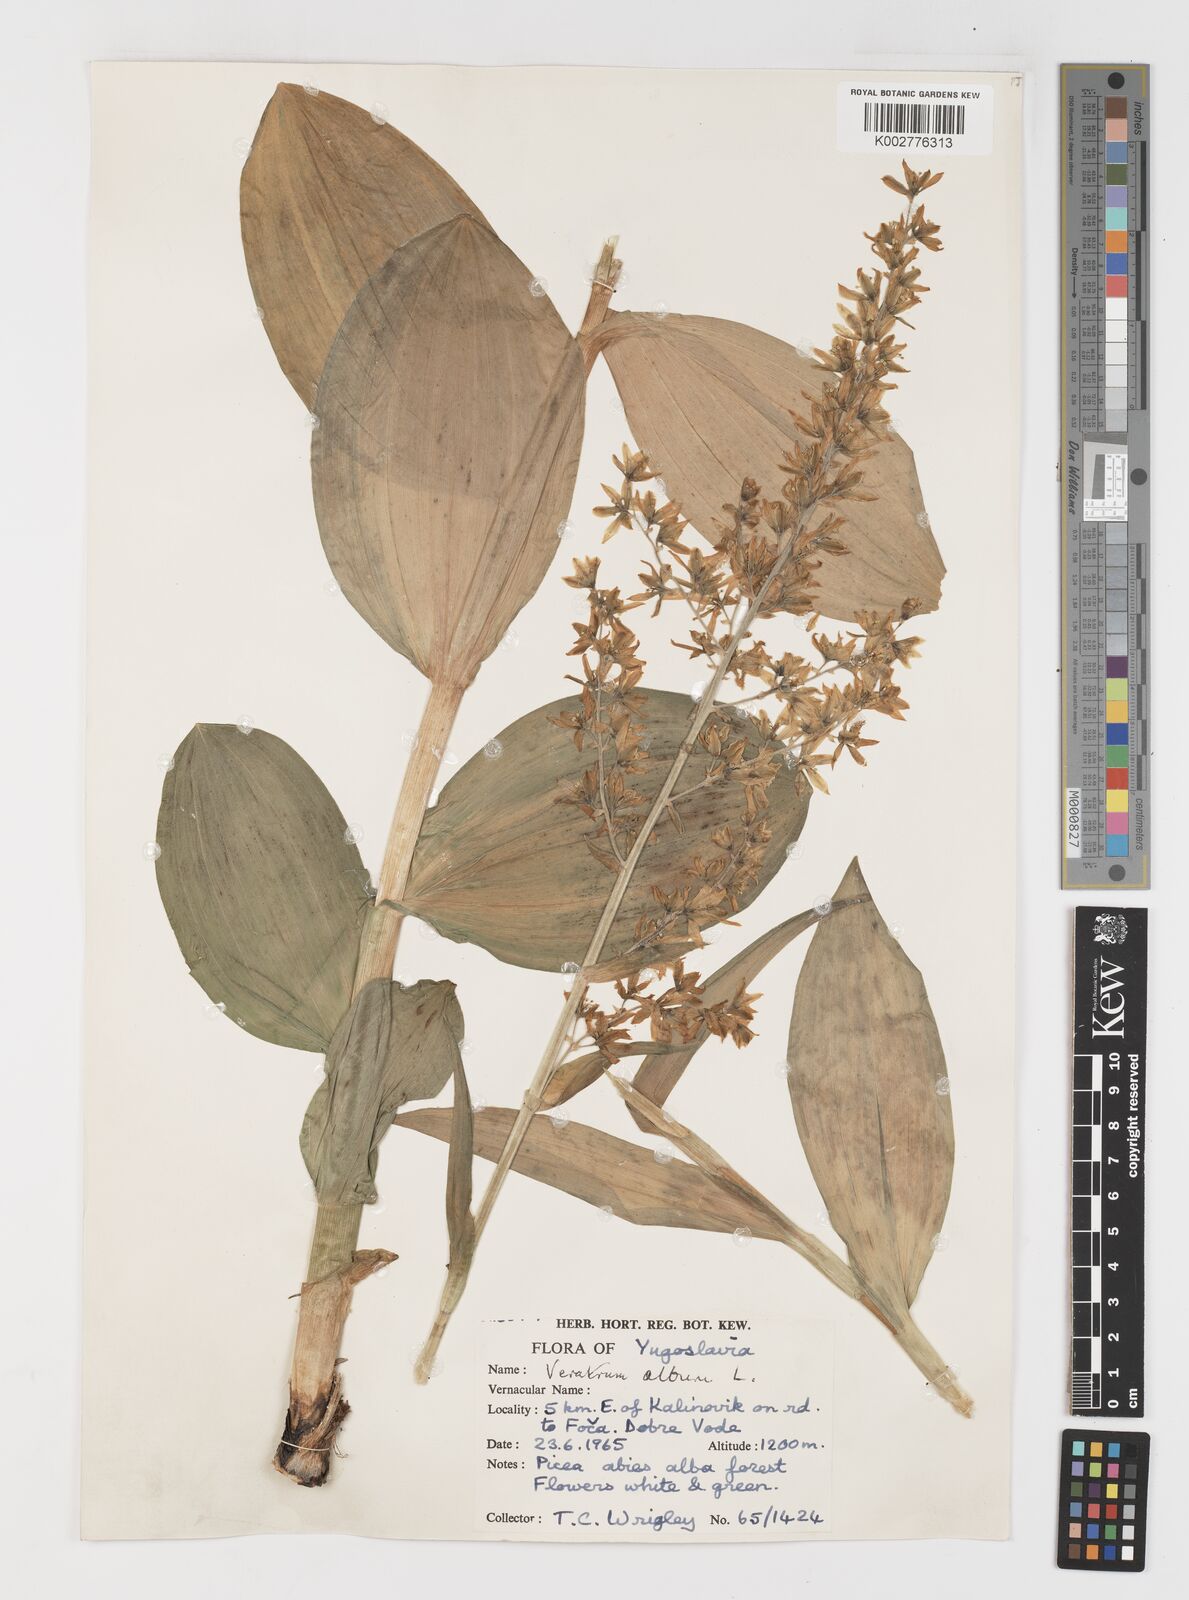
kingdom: Plantae
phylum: Tracheophyta
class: Liliopsida
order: Liliales
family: Melanthiaceae
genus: Veratrum
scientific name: Veratrum album
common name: White veratrum
